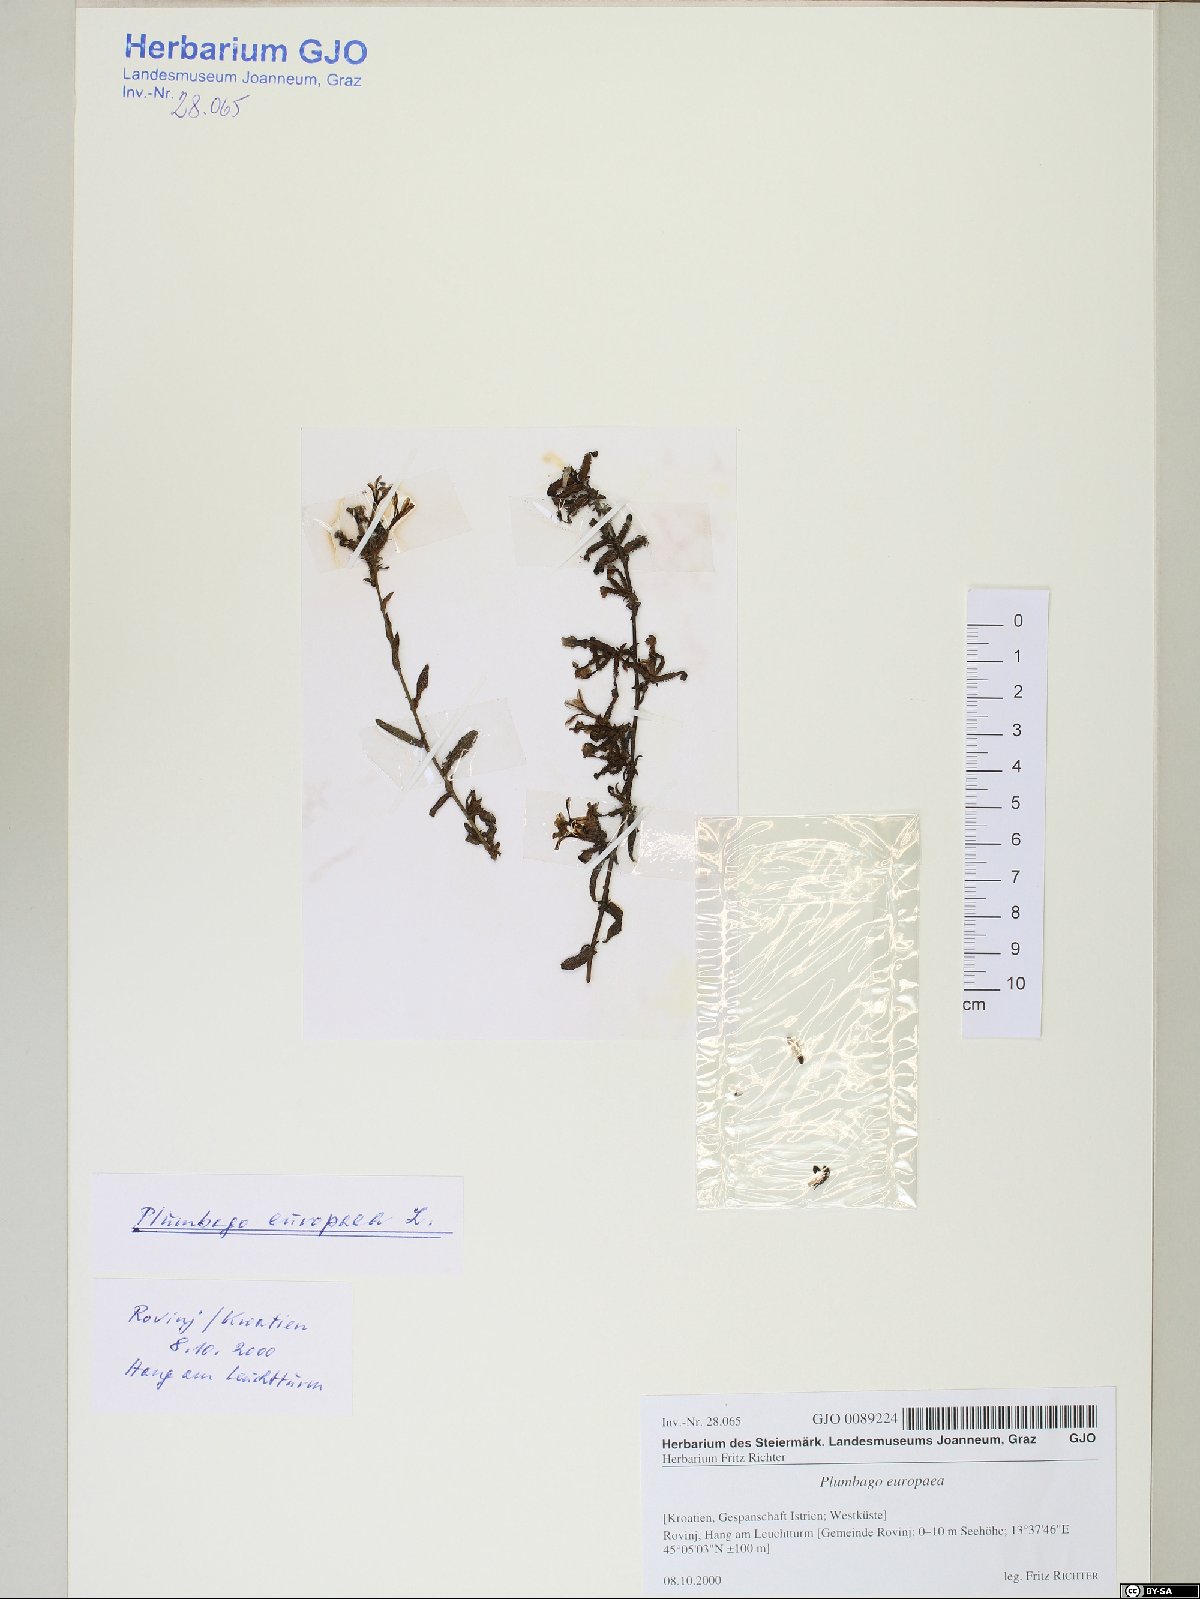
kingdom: Plantae
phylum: Tracheophyta
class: Magnoliopsida
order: Caryophyllales
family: Plumbaginaceae
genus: Plumbago
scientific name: Plumbago europaea
